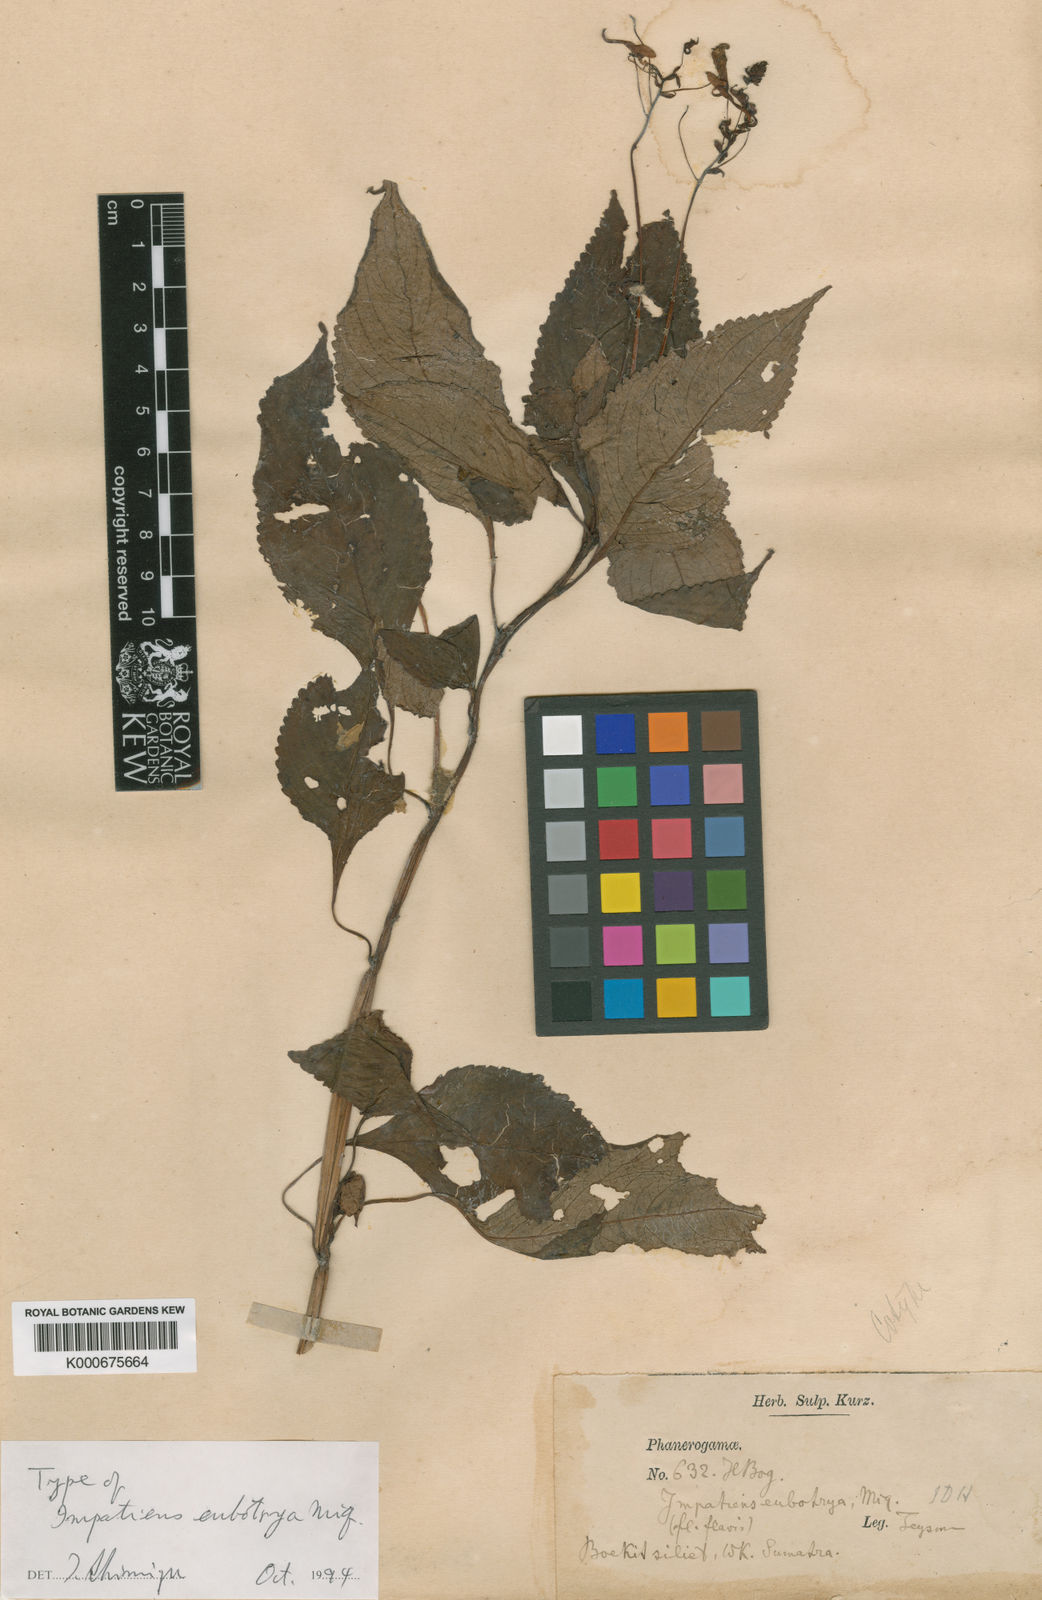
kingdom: Plantae
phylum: Tracheophyta
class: Magnoliopsida
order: Ericales
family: Balsaminaceae
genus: Impatiens
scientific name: Impatiens eubotrya
